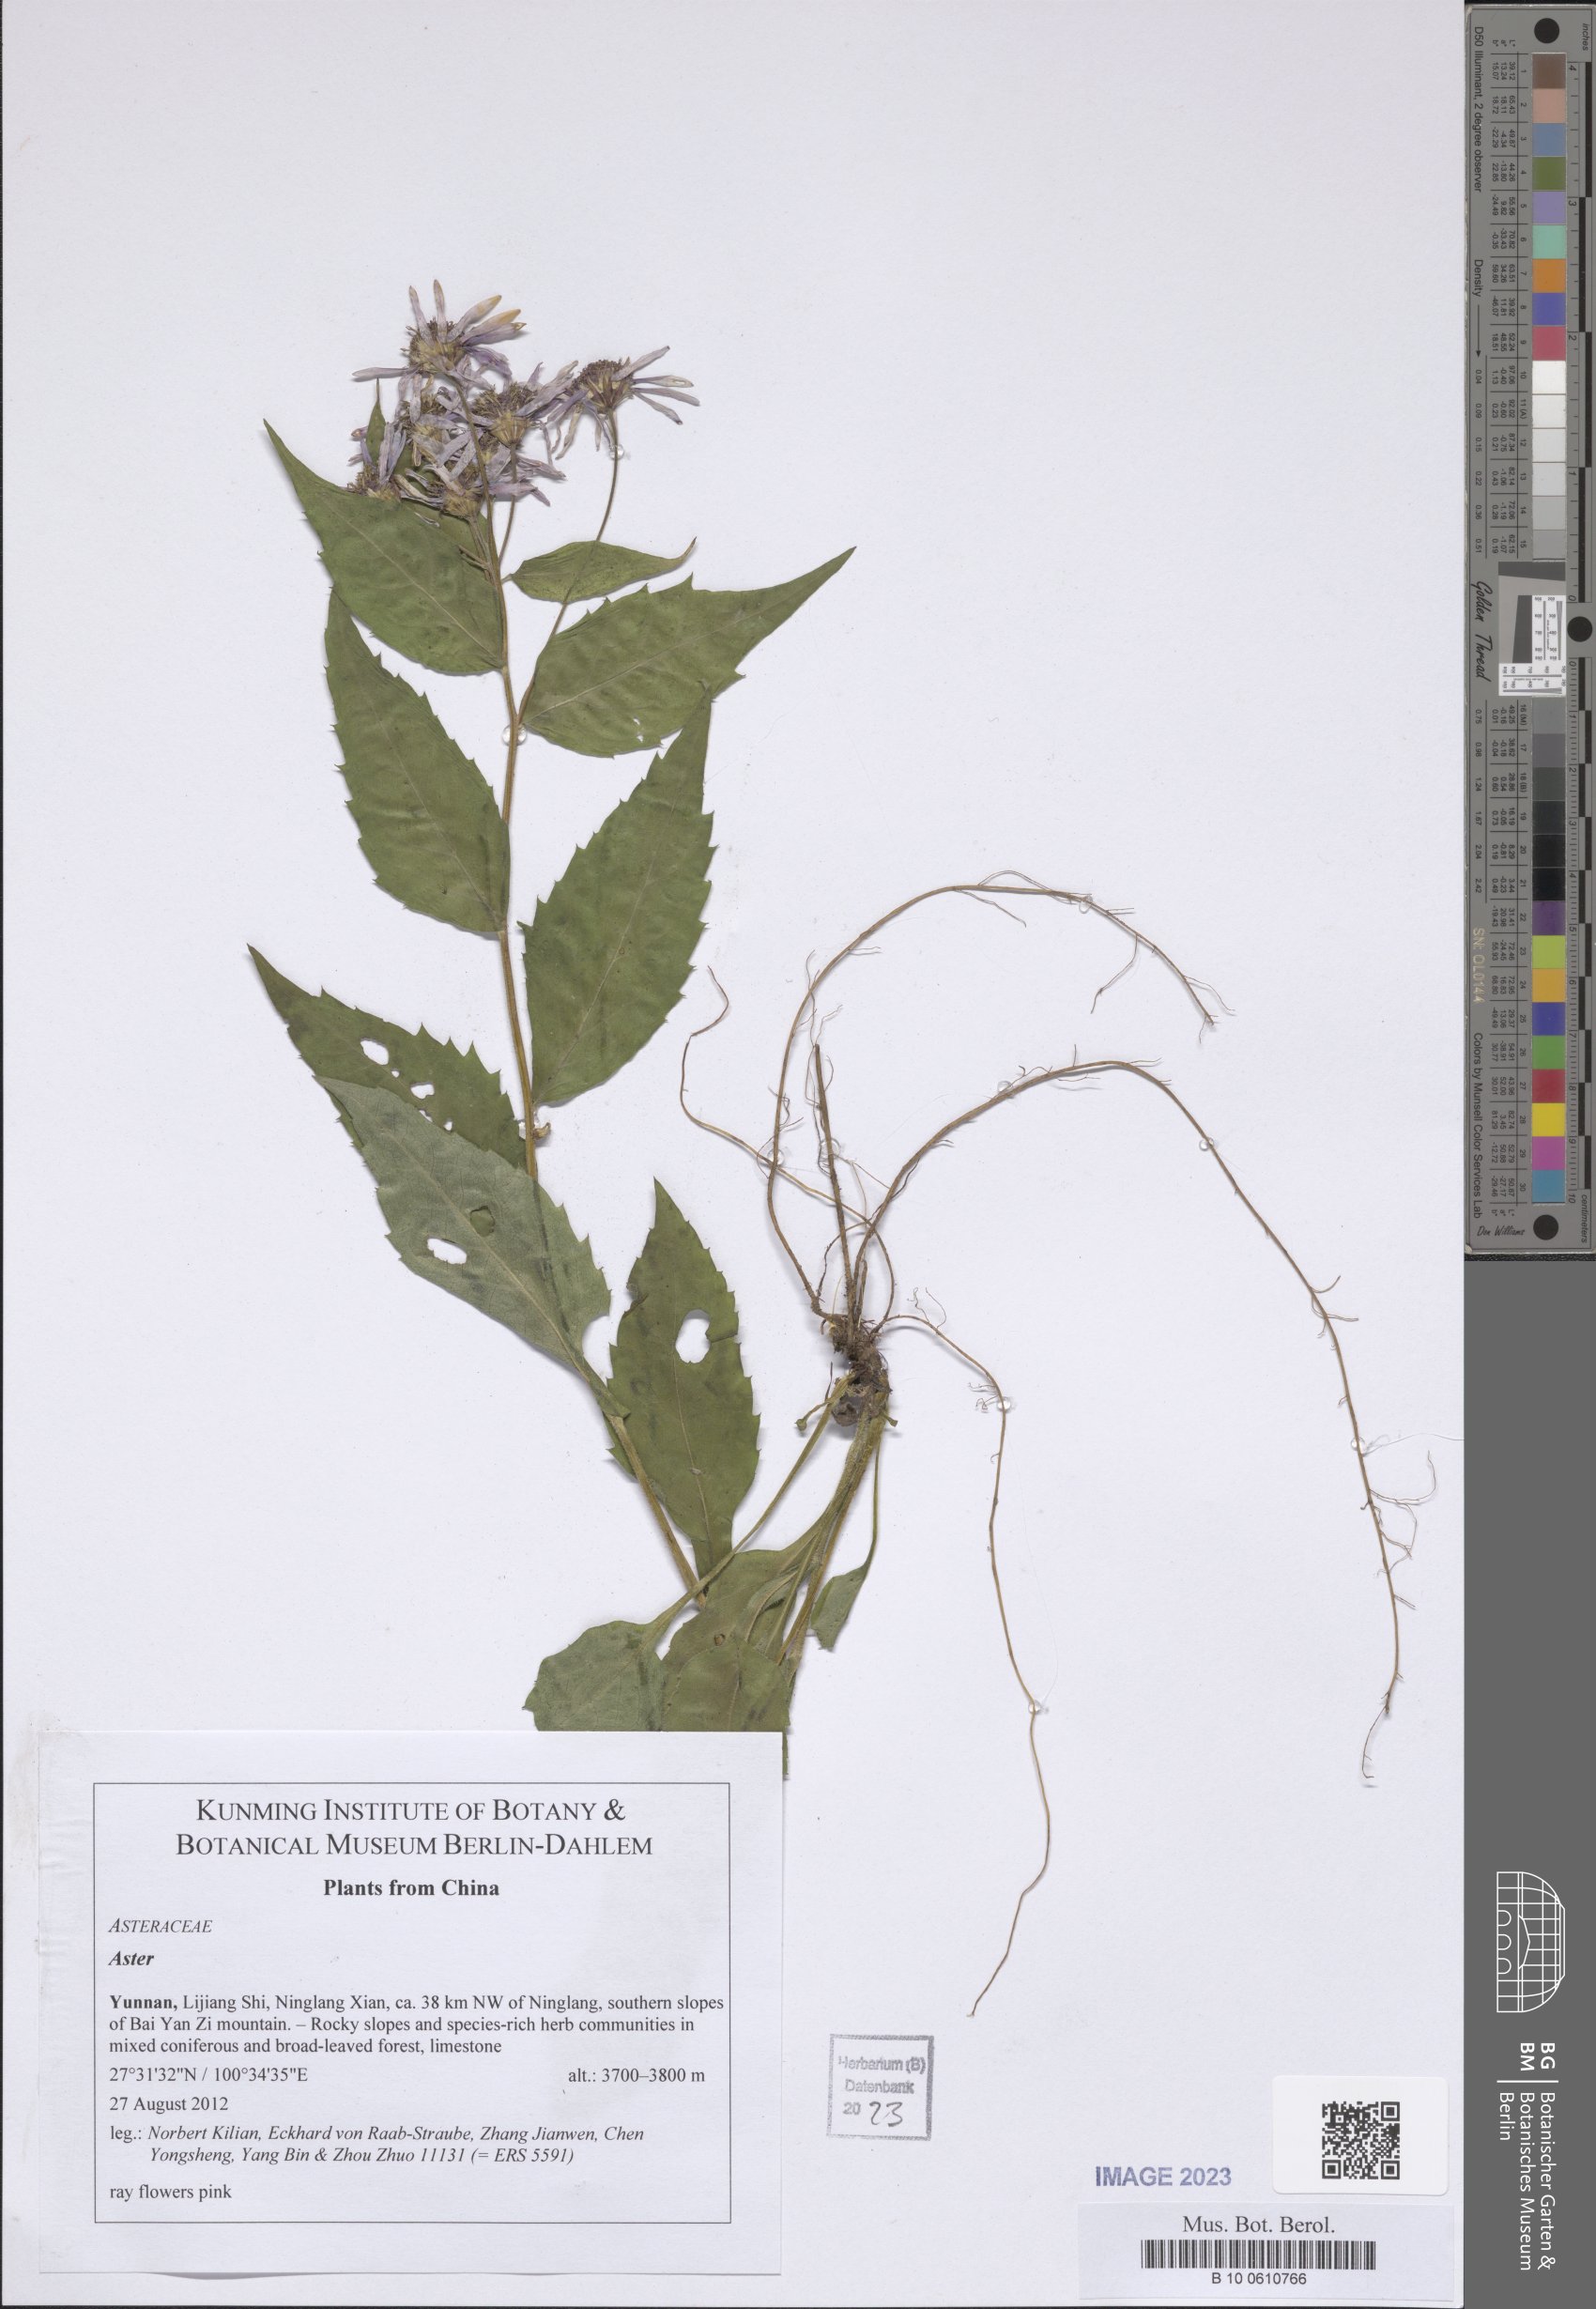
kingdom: Plantae
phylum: Tracheophyta
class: Magnoliopsida
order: Asterales
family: Asteraceae
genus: Aster
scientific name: Aster
